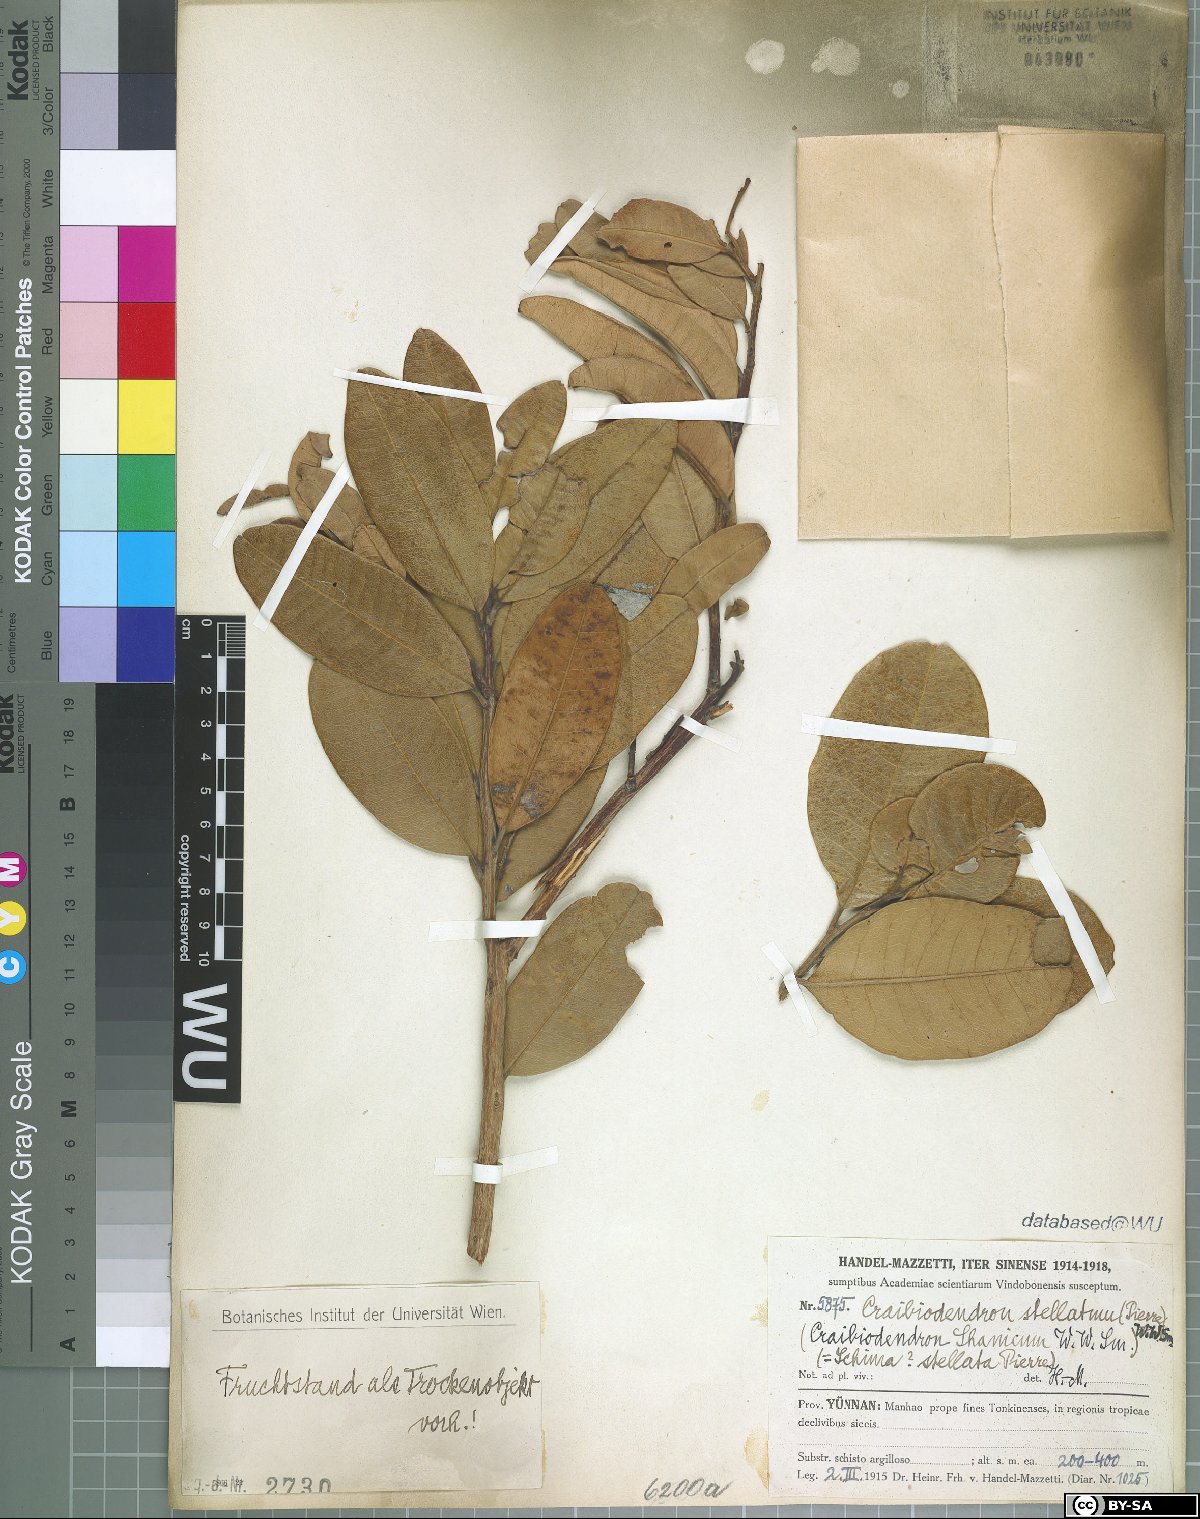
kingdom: Plantae
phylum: Tracheophyta
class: Magnoliopsida
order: Ericales
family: Ericaceae
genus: Craibiodendron
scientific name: Craibiodendron stellatum
